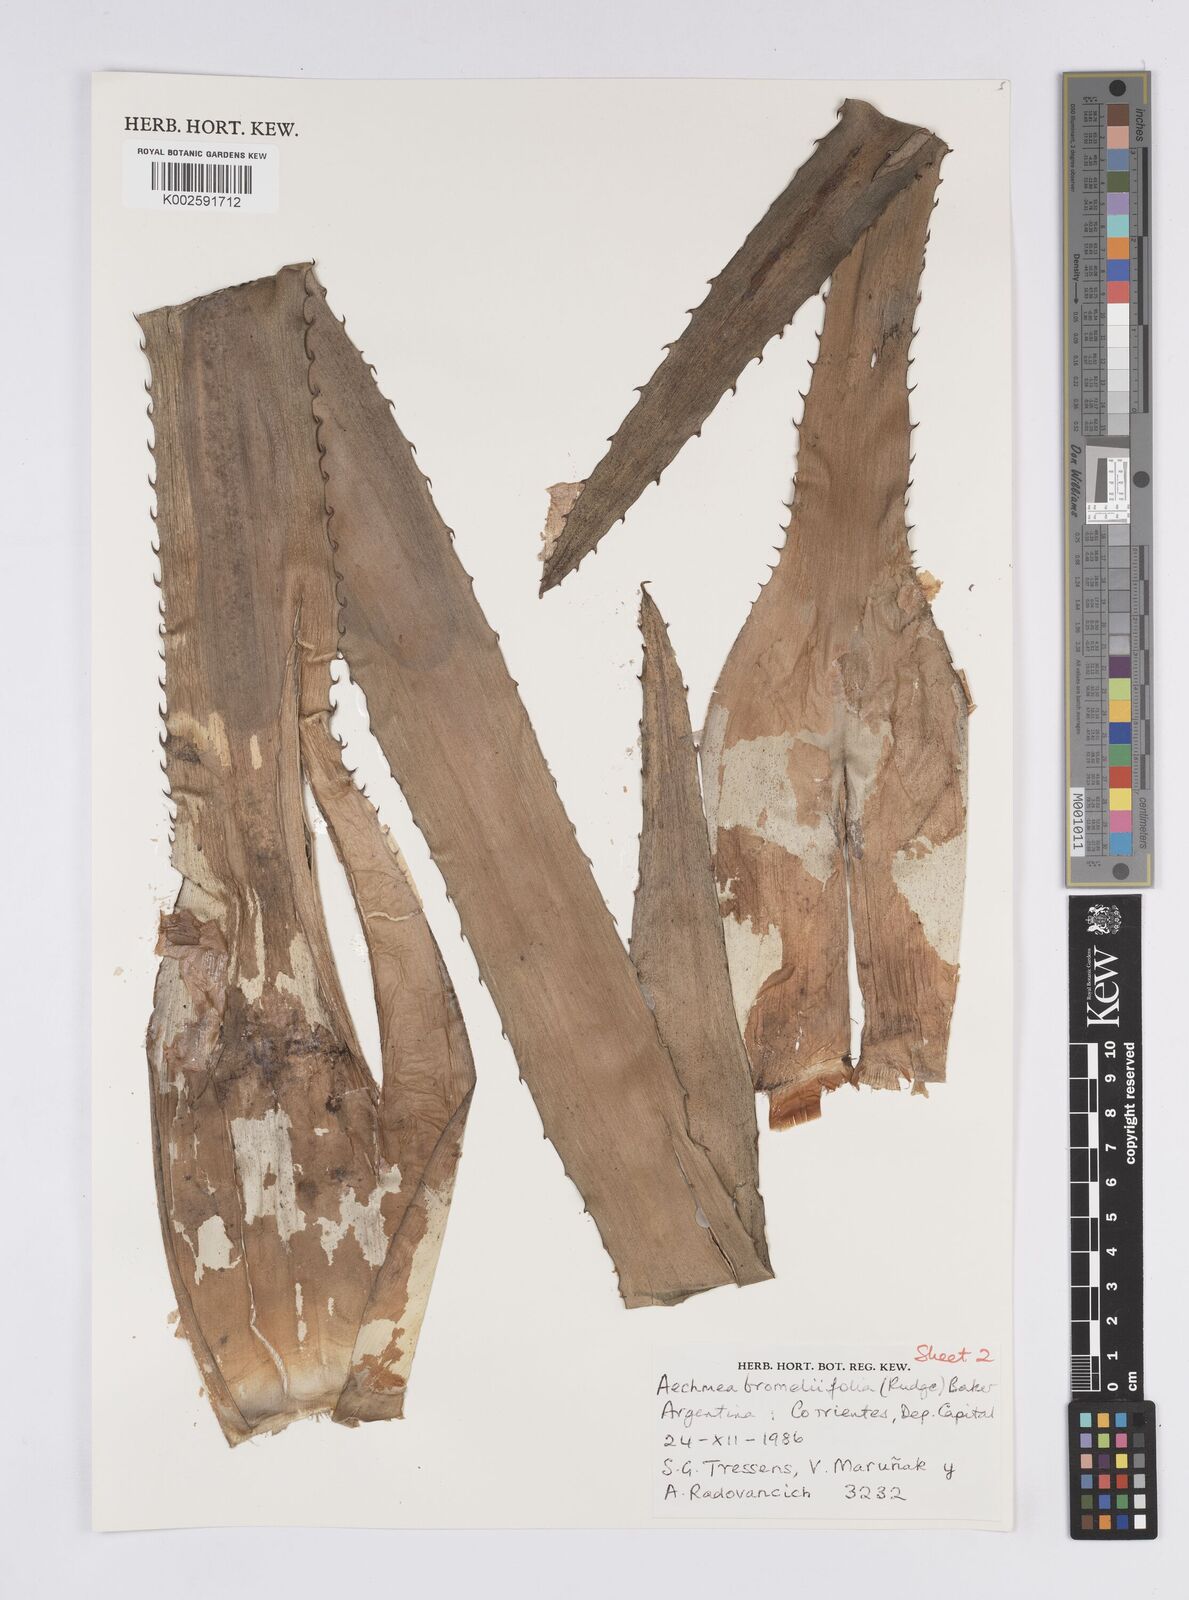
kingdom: Plantae
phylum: Tracheophyta
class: Liliopsida
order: Poales
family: Bromeliaceae
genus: Aechmea
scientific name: Aechmea bromeliifolia
